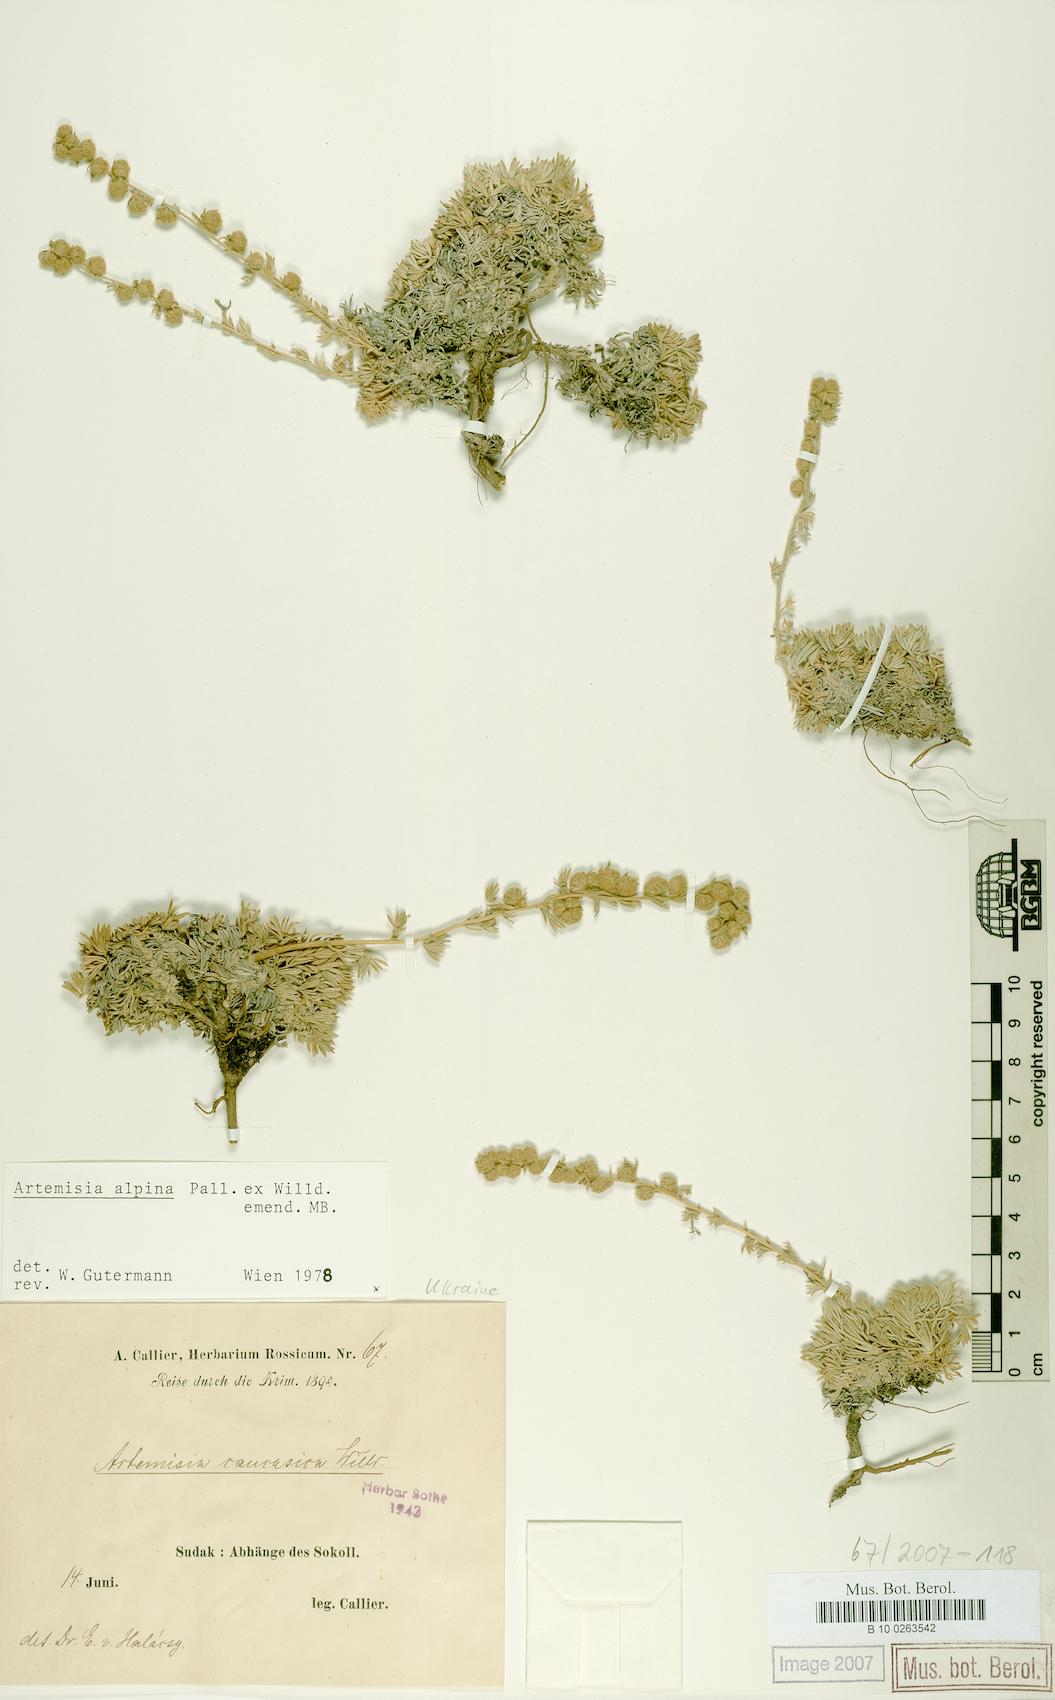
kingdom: Plantae
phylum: Tracheophyta
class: Magnoliopsida
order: Asterales
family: Asteraceae
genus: Artemisia
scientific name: Artemisia alpina
